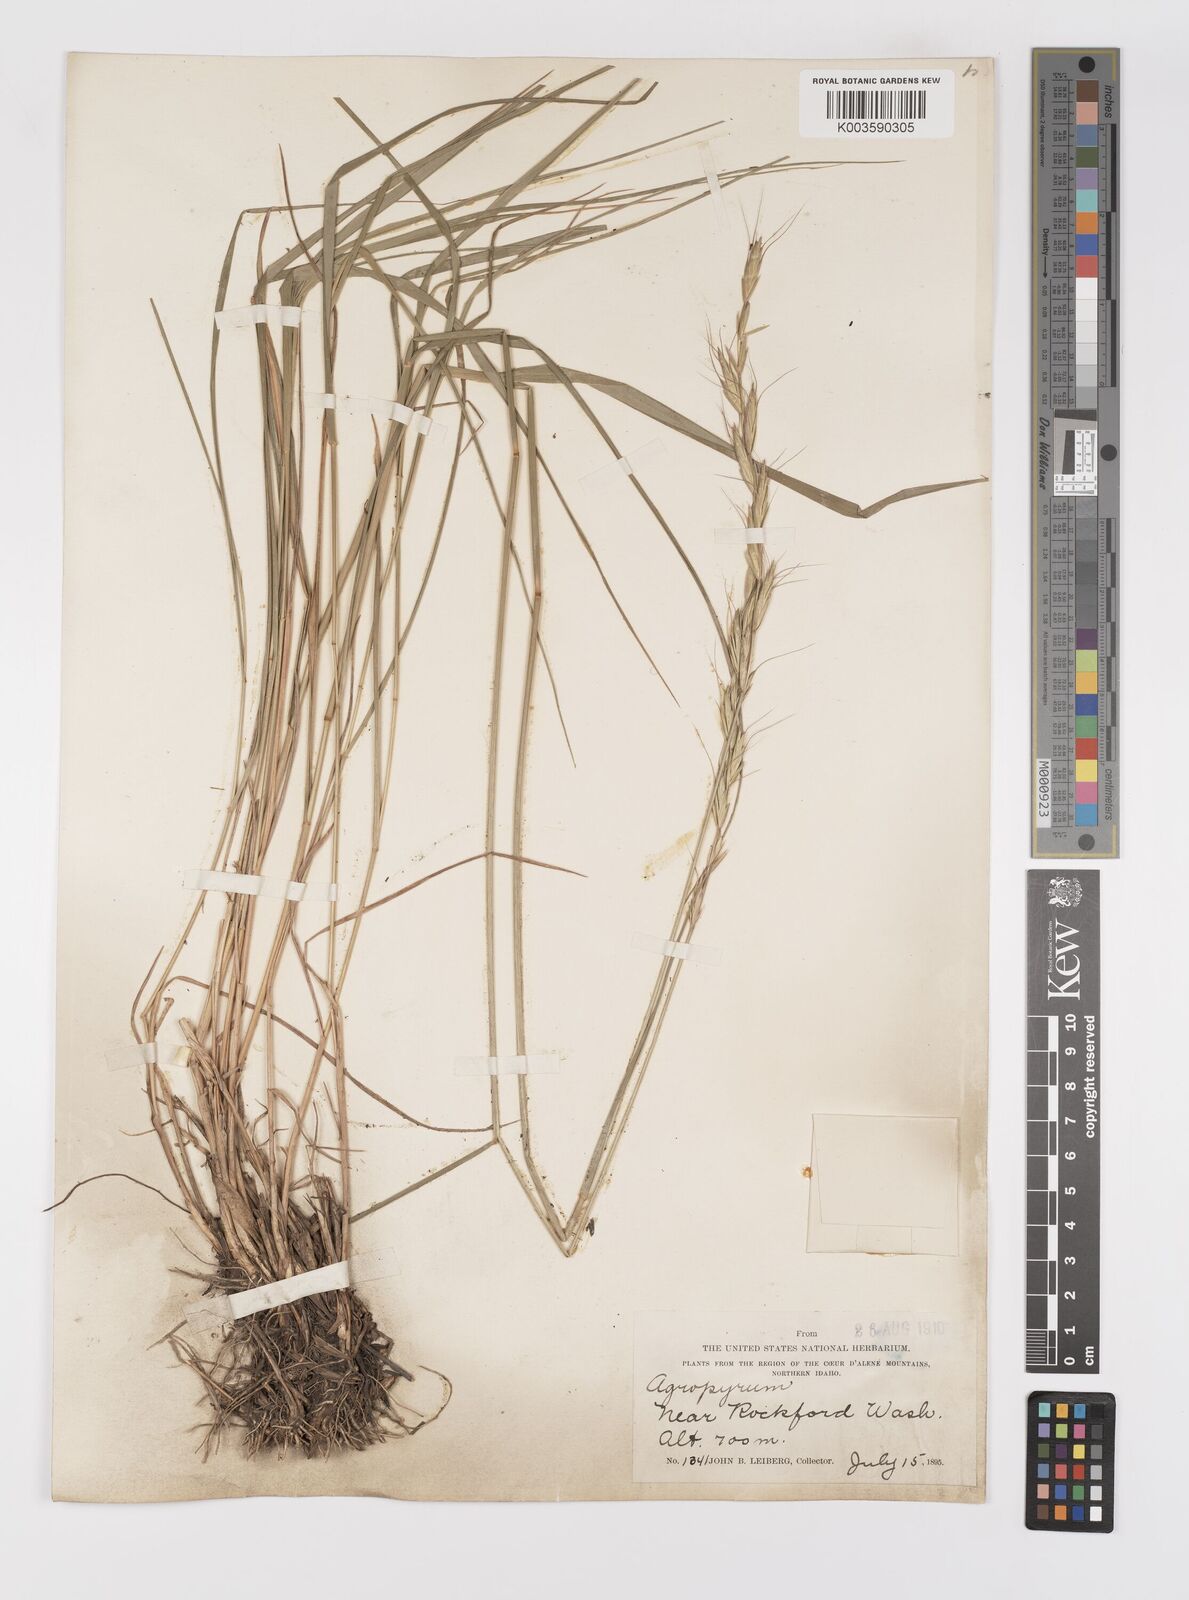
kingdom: Plantae
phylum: Tracheophyta
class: Liliopsida
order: Poales
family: Poaceae
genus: Elymus
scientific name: Elymus
